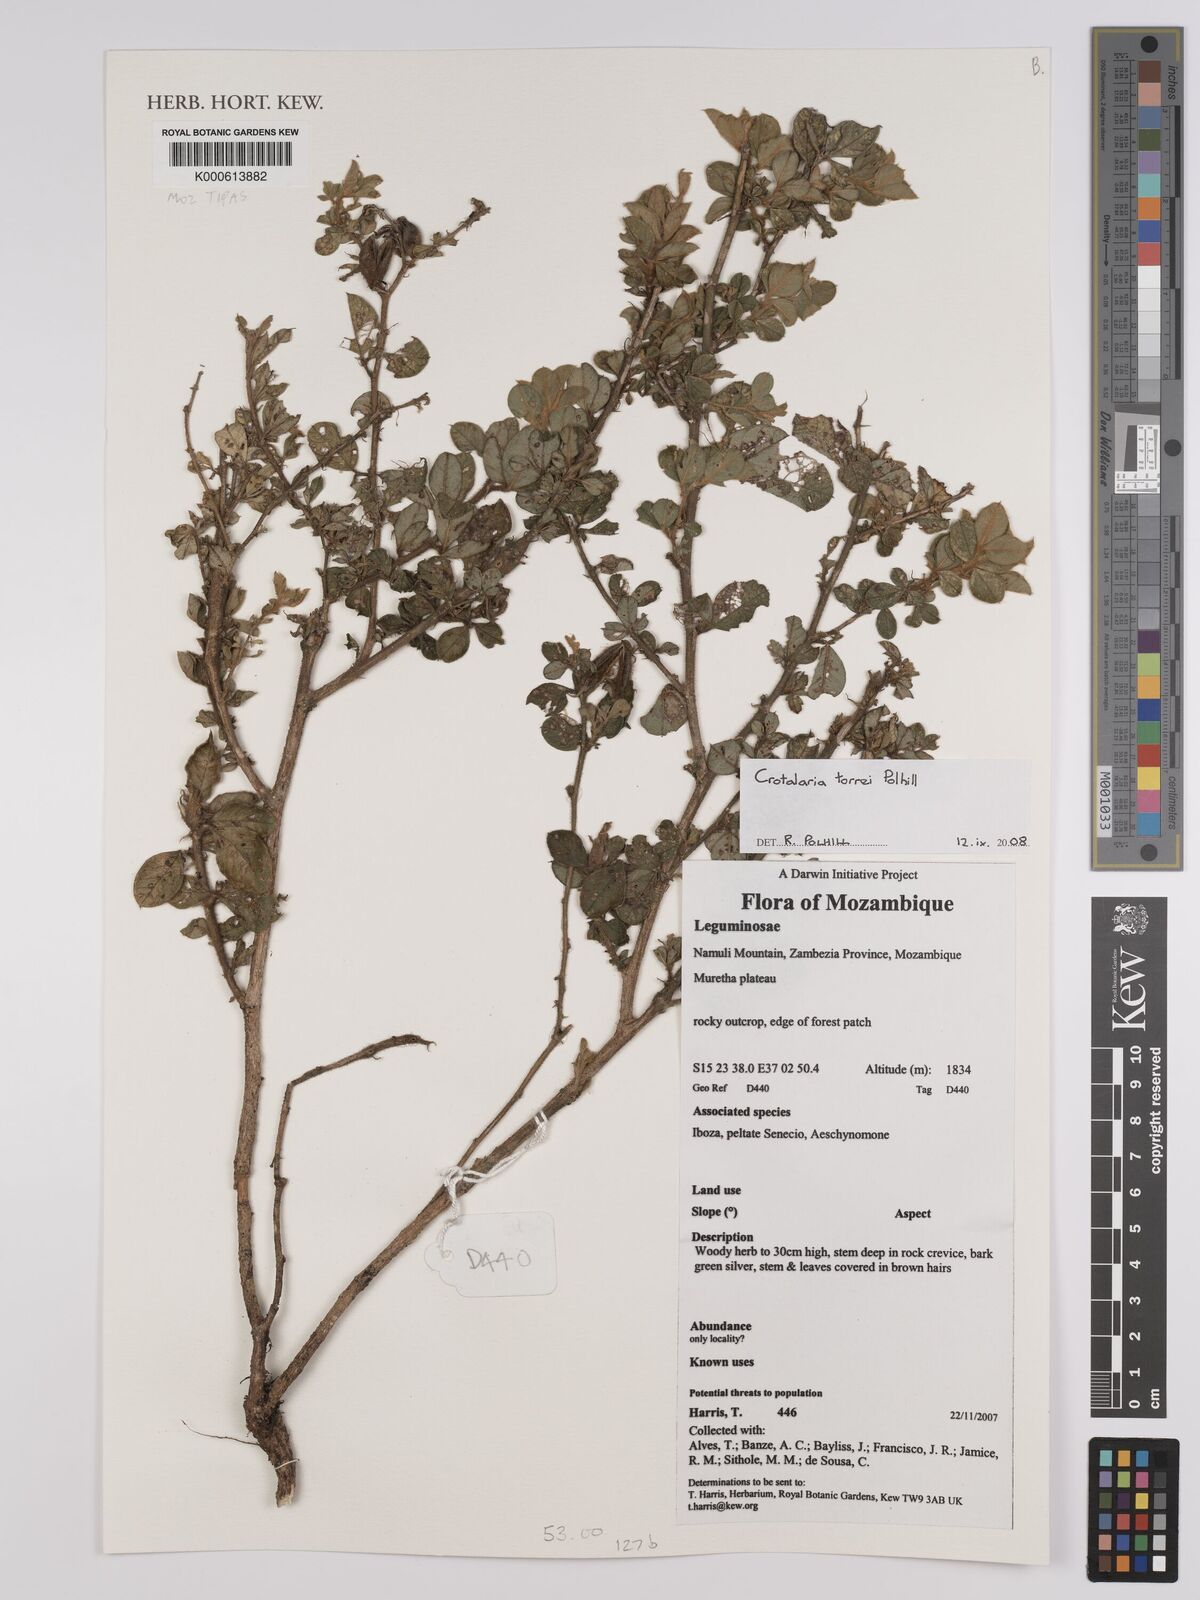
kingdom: Plantae
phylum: Tracheophyta
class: Magnoliopsida
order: Fabales
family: Fabaceae
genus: Crotalaria
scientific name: Crotalaria torrei
